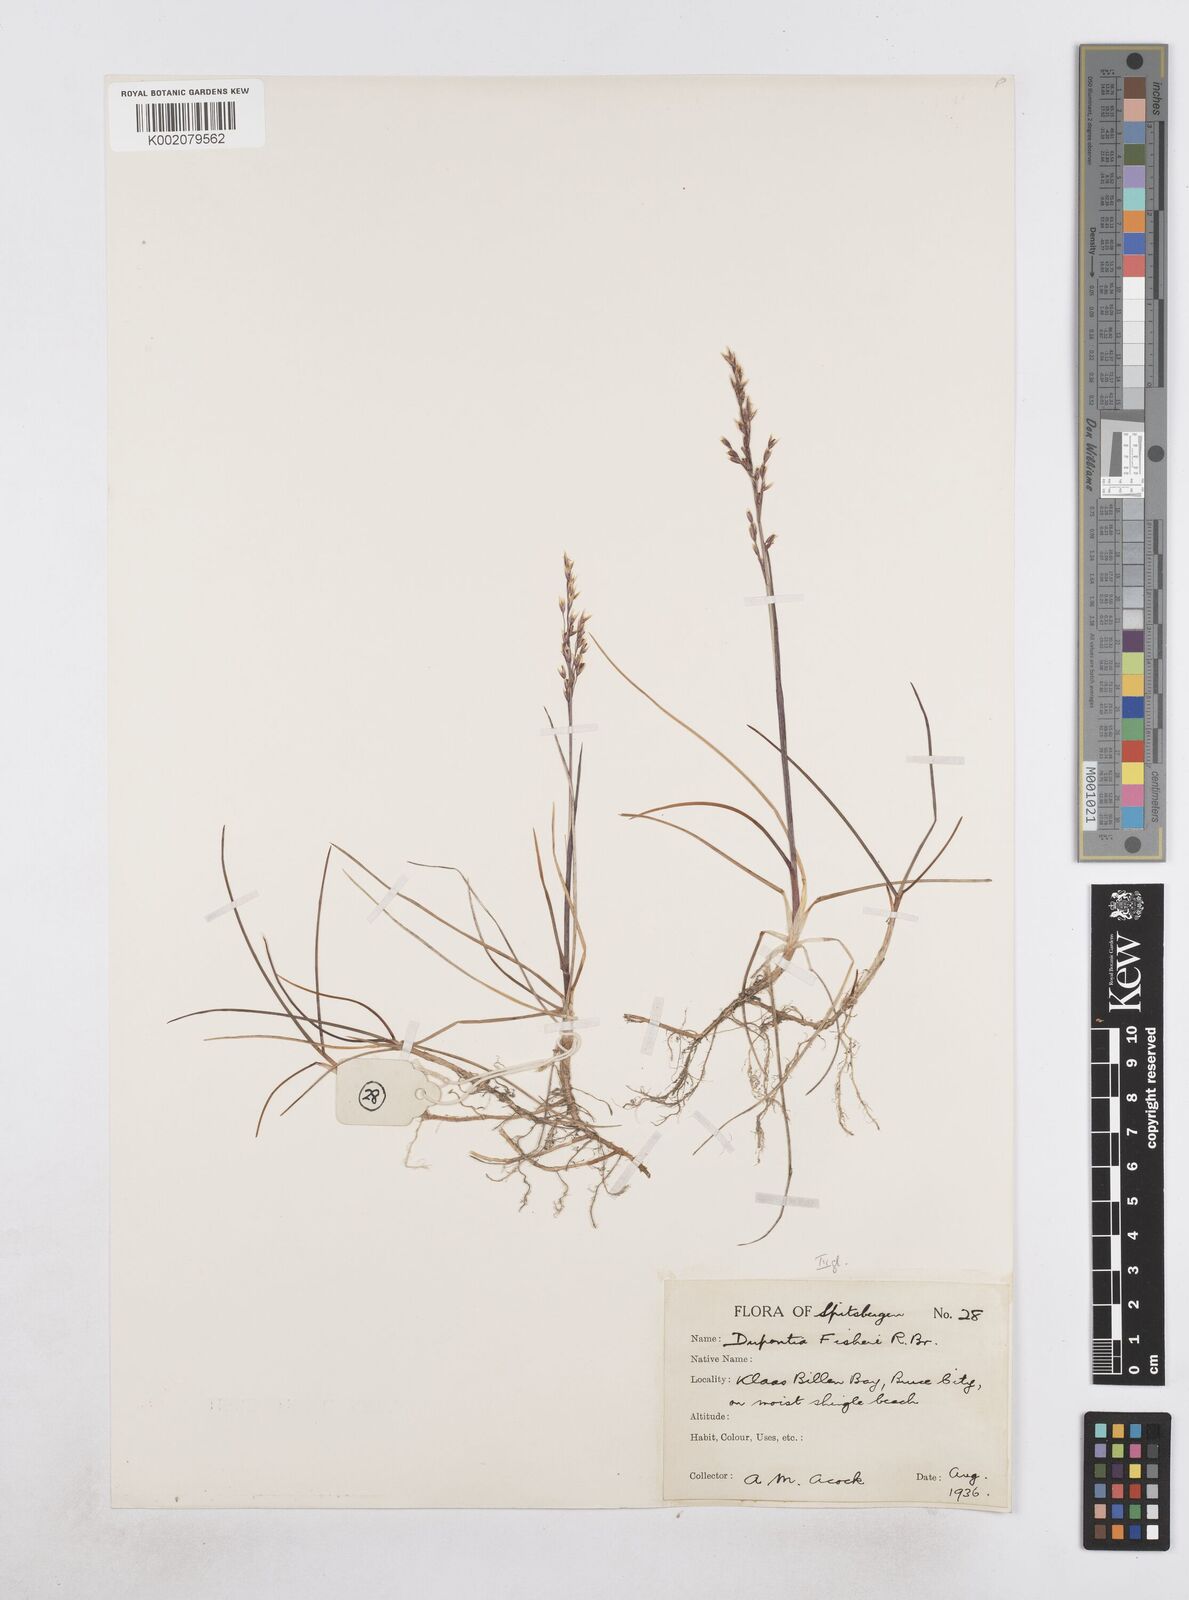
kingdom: Plantae
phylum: Tracheophyta
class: Liliopsida
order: Poales
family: Poaceae
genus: Dupontia
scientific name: Dupontia fisheri
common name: Tundra grass
